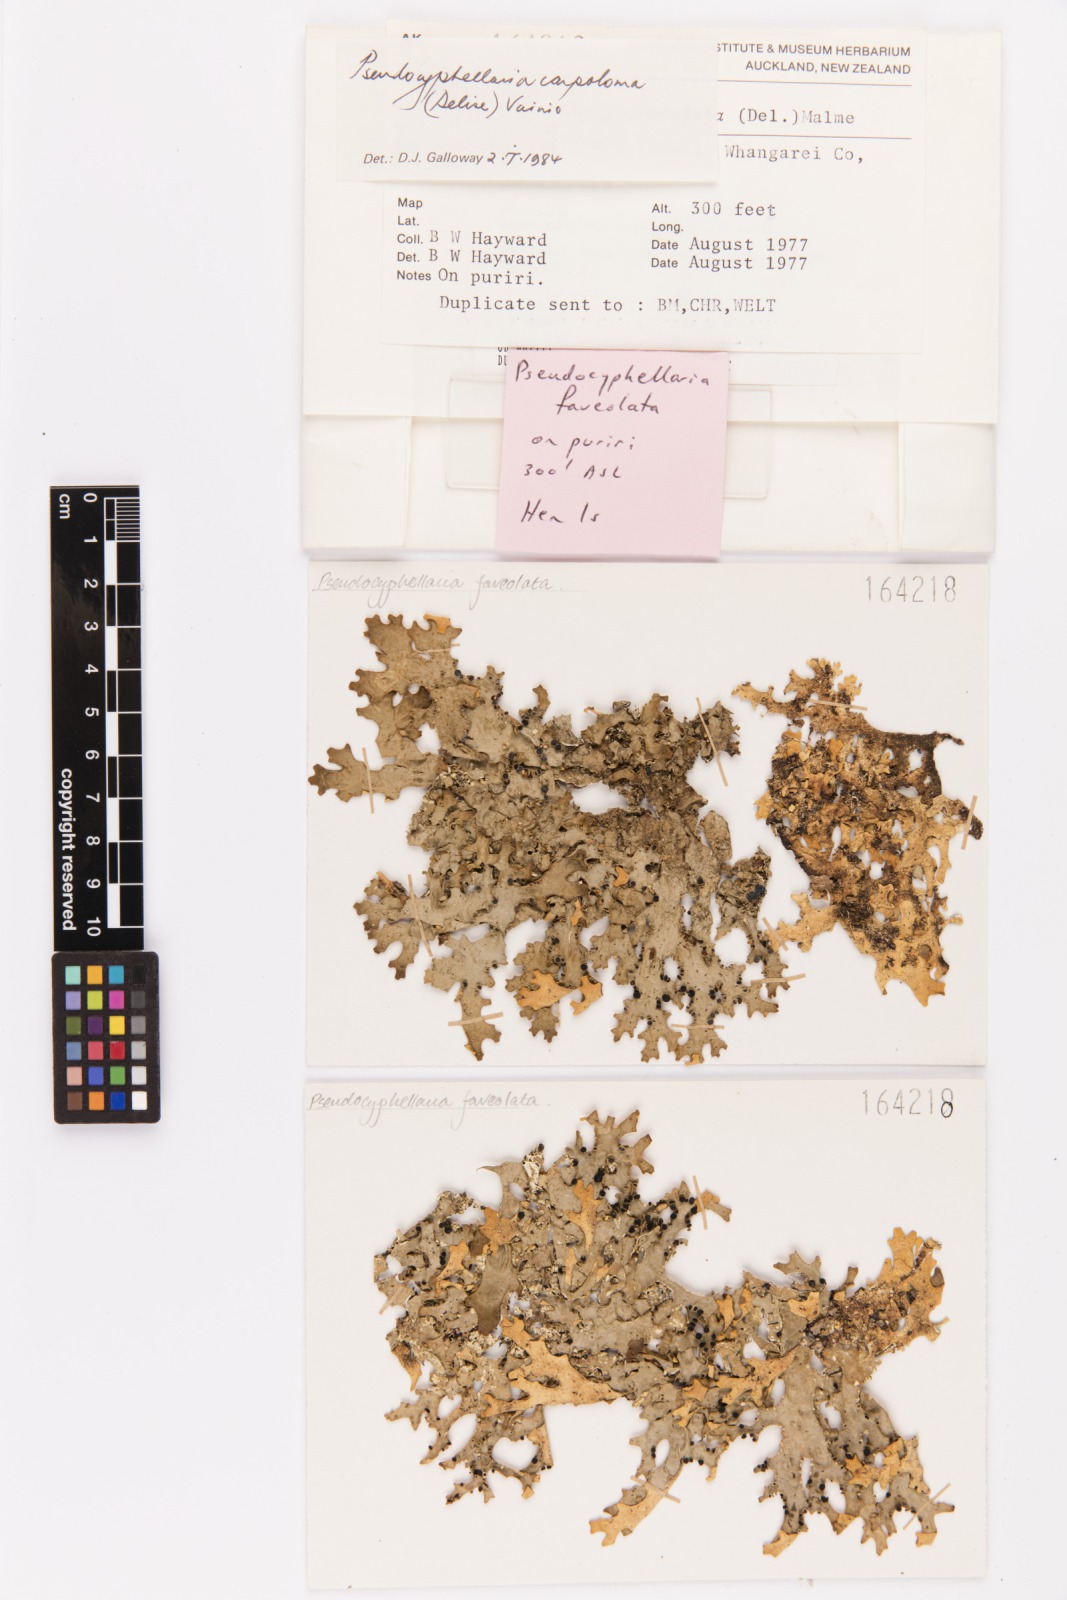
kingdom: Fungi
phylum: Ascomycota
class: Lecanoromycetes
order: Peltigerales
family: Lobariaceae
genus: Pseudocyphellaria
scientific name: Pseudocyphellaria carpoloma
